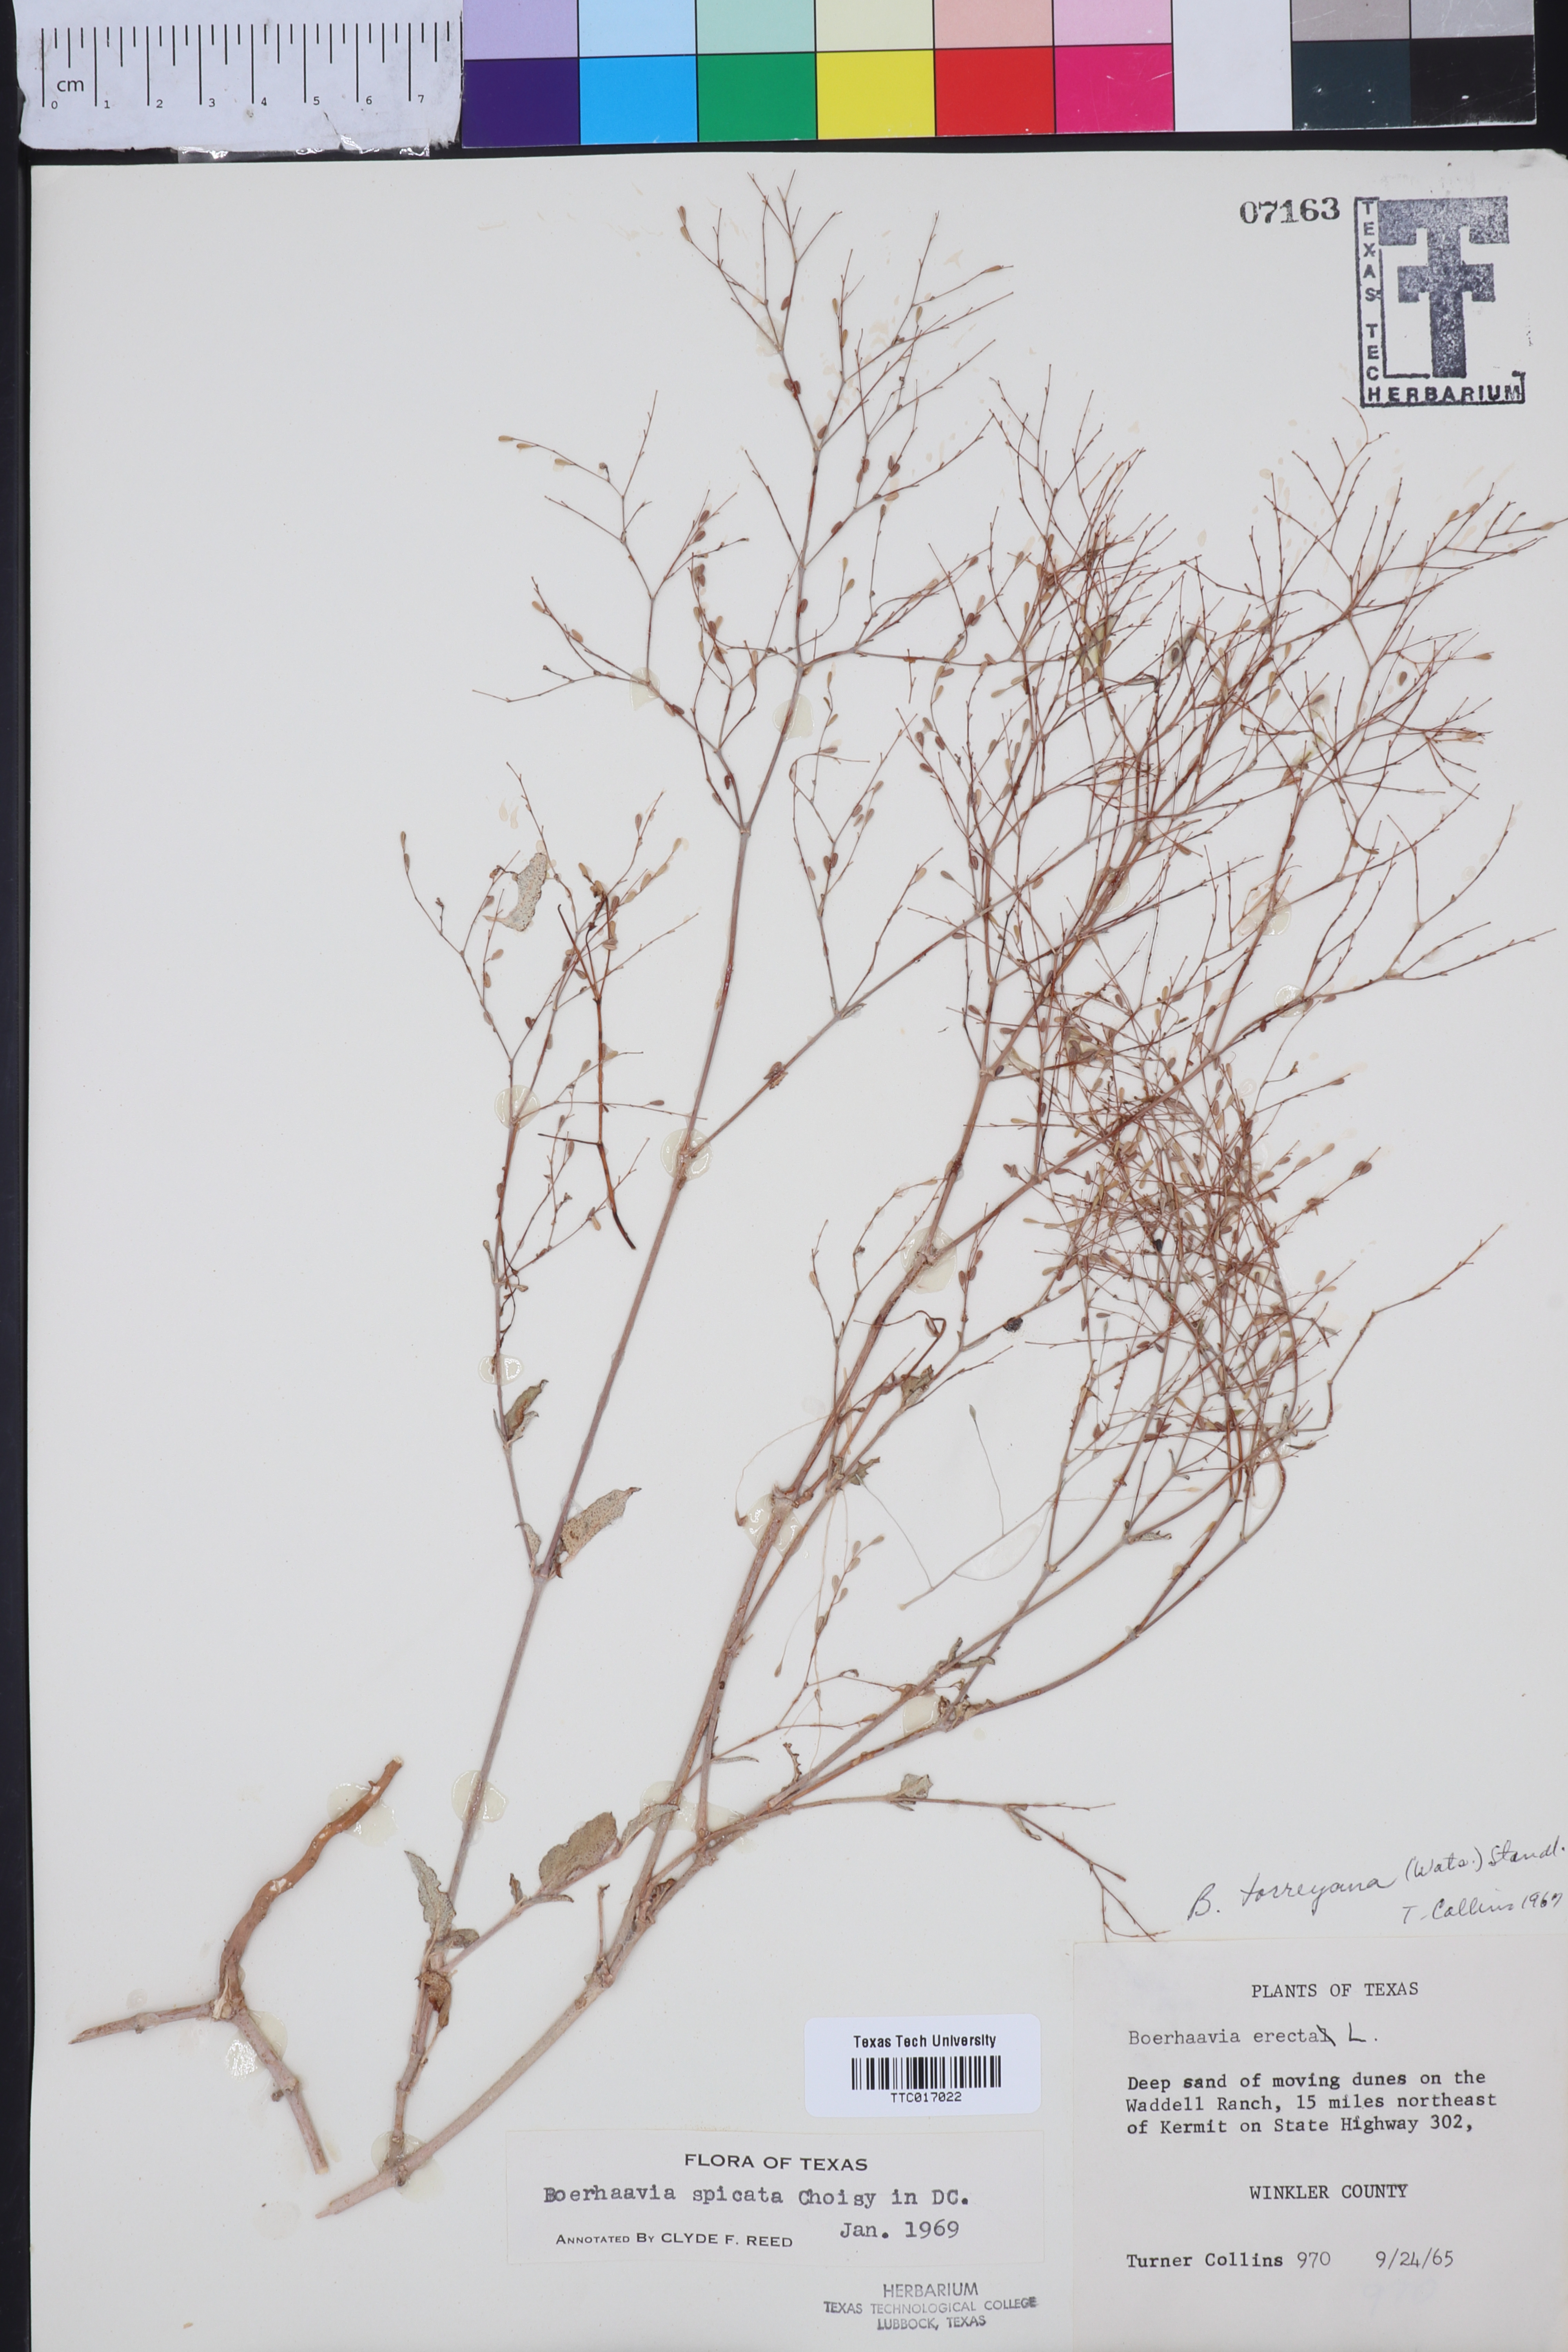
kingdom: Plantae
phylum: Tracheophyta
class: Magnoliopsida
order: Caryophyllales
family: Nyctaginaceae
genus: Boerhavia
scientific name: Boerhavia spicata
